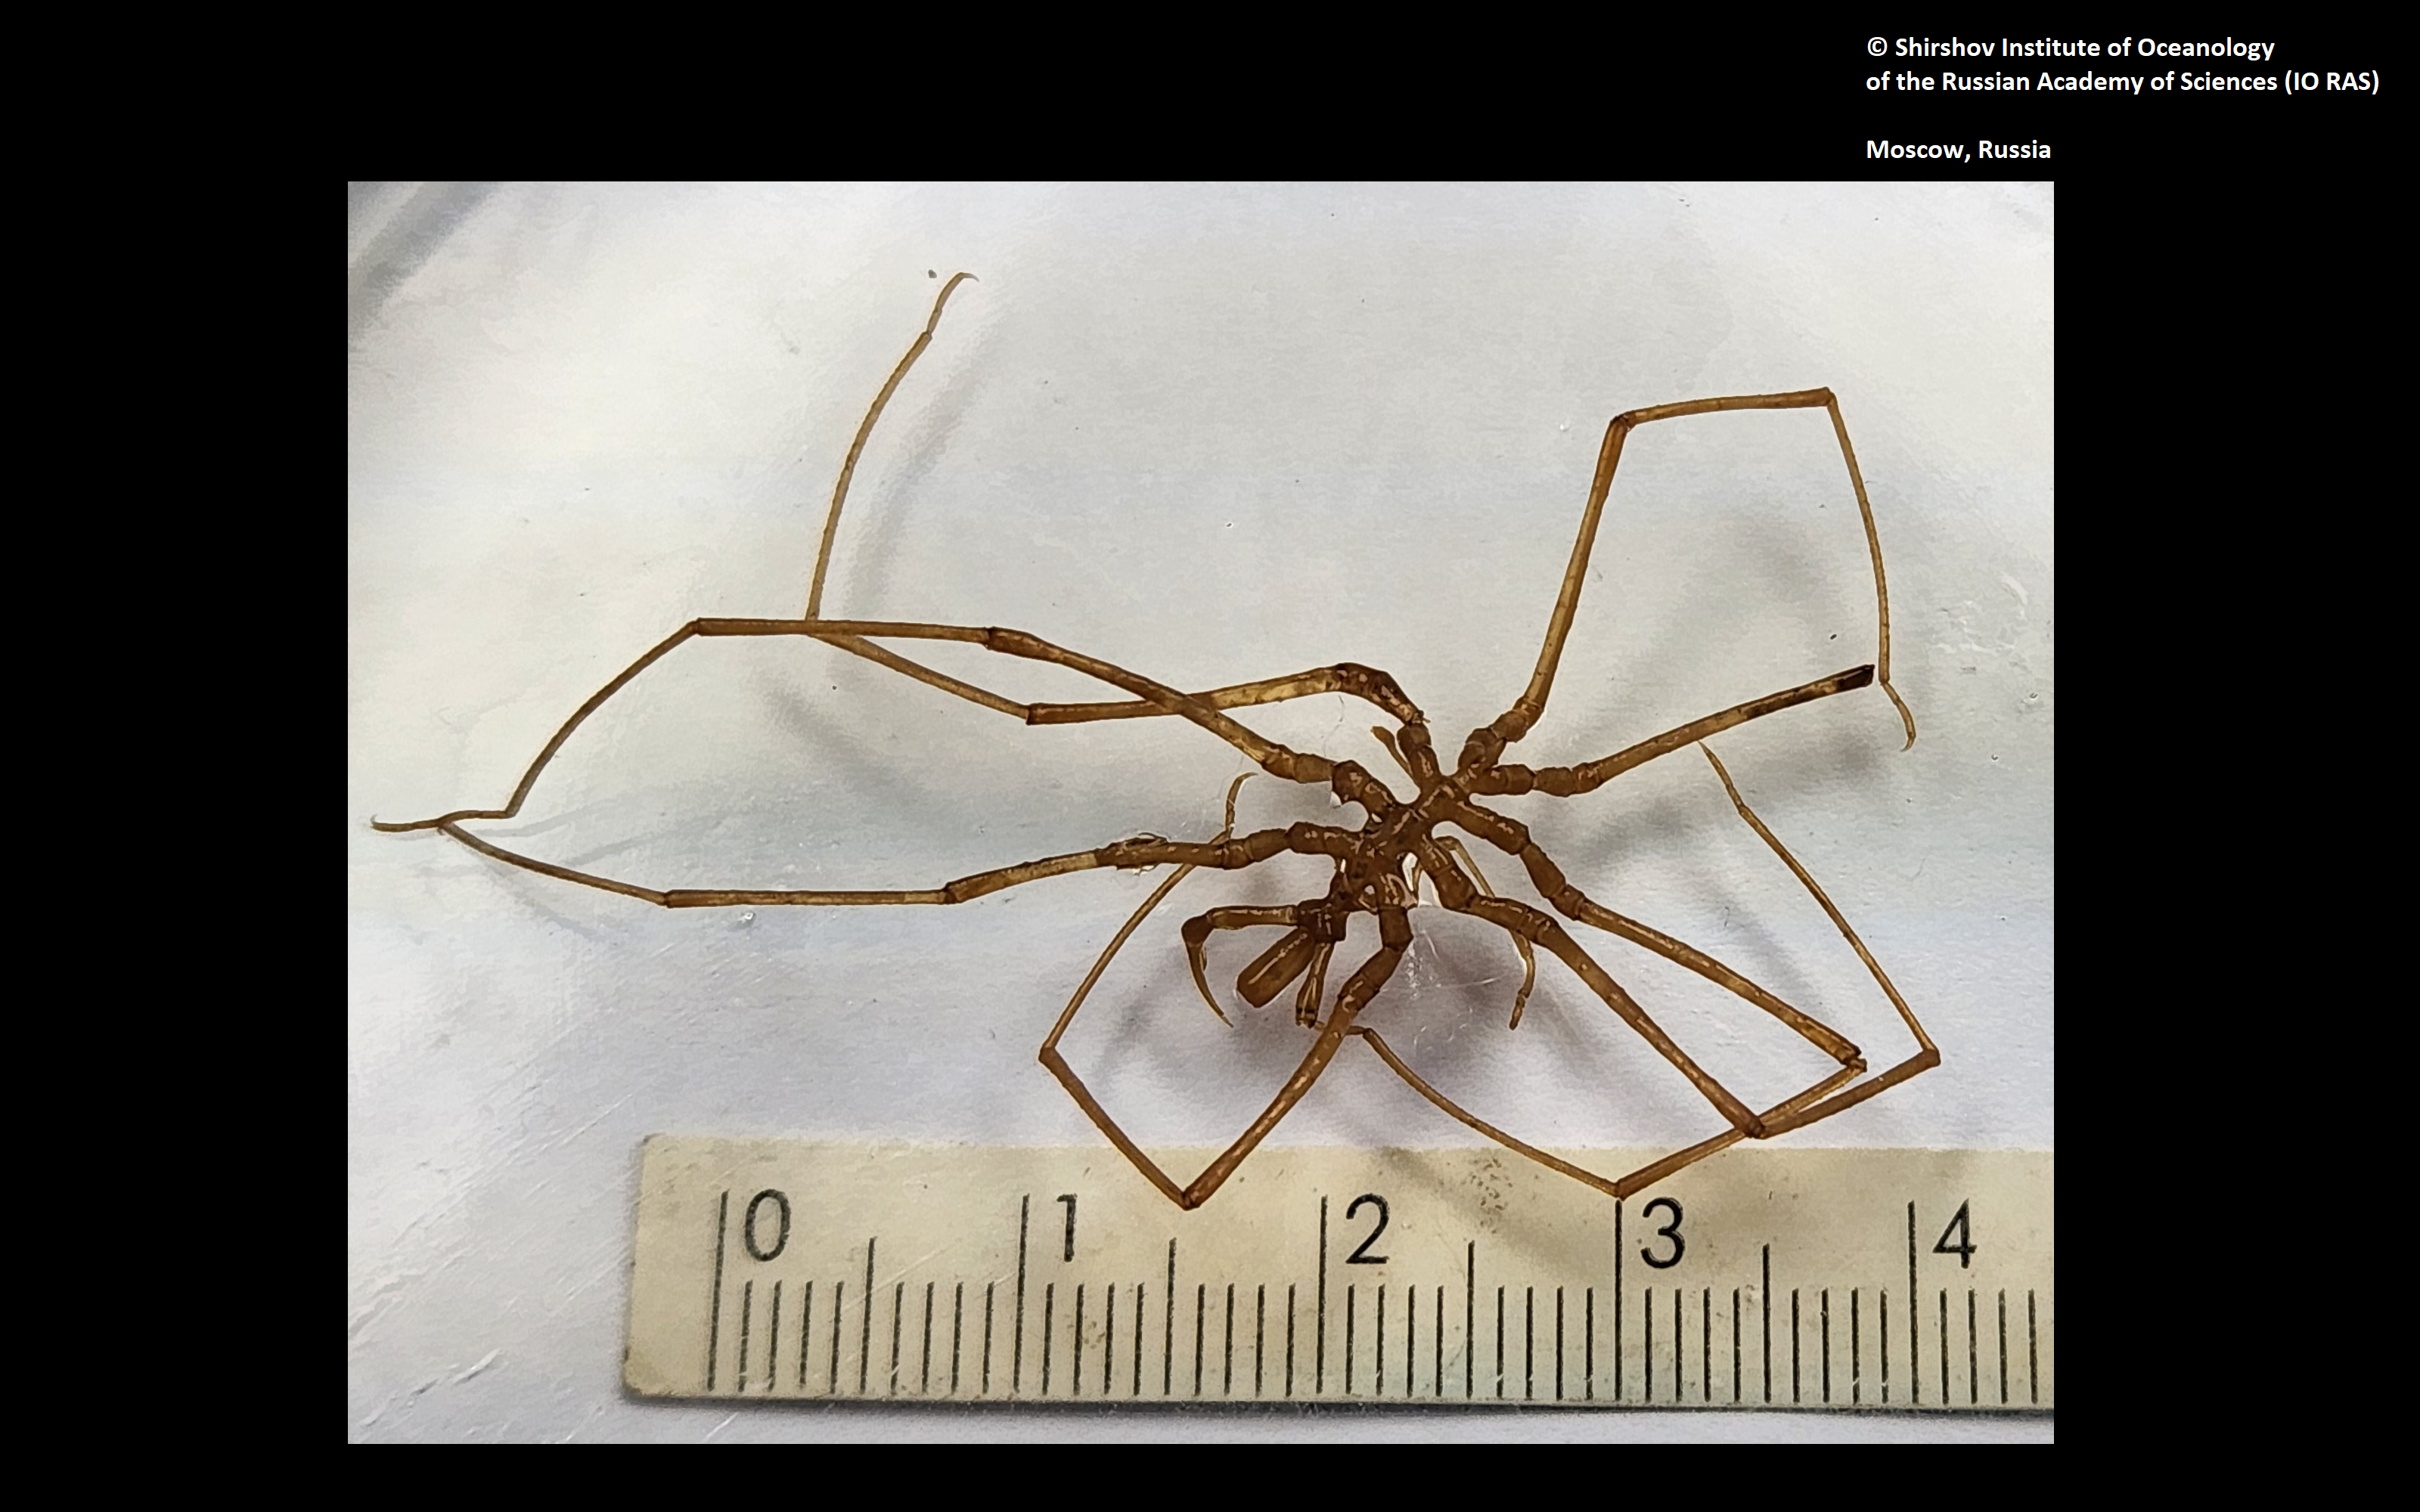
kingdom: Animalia
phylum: Arthropoda
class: Pycnogonida
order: Pantopoda
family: Nymphonidae
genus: Nymphon
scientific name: Nymphon petri
